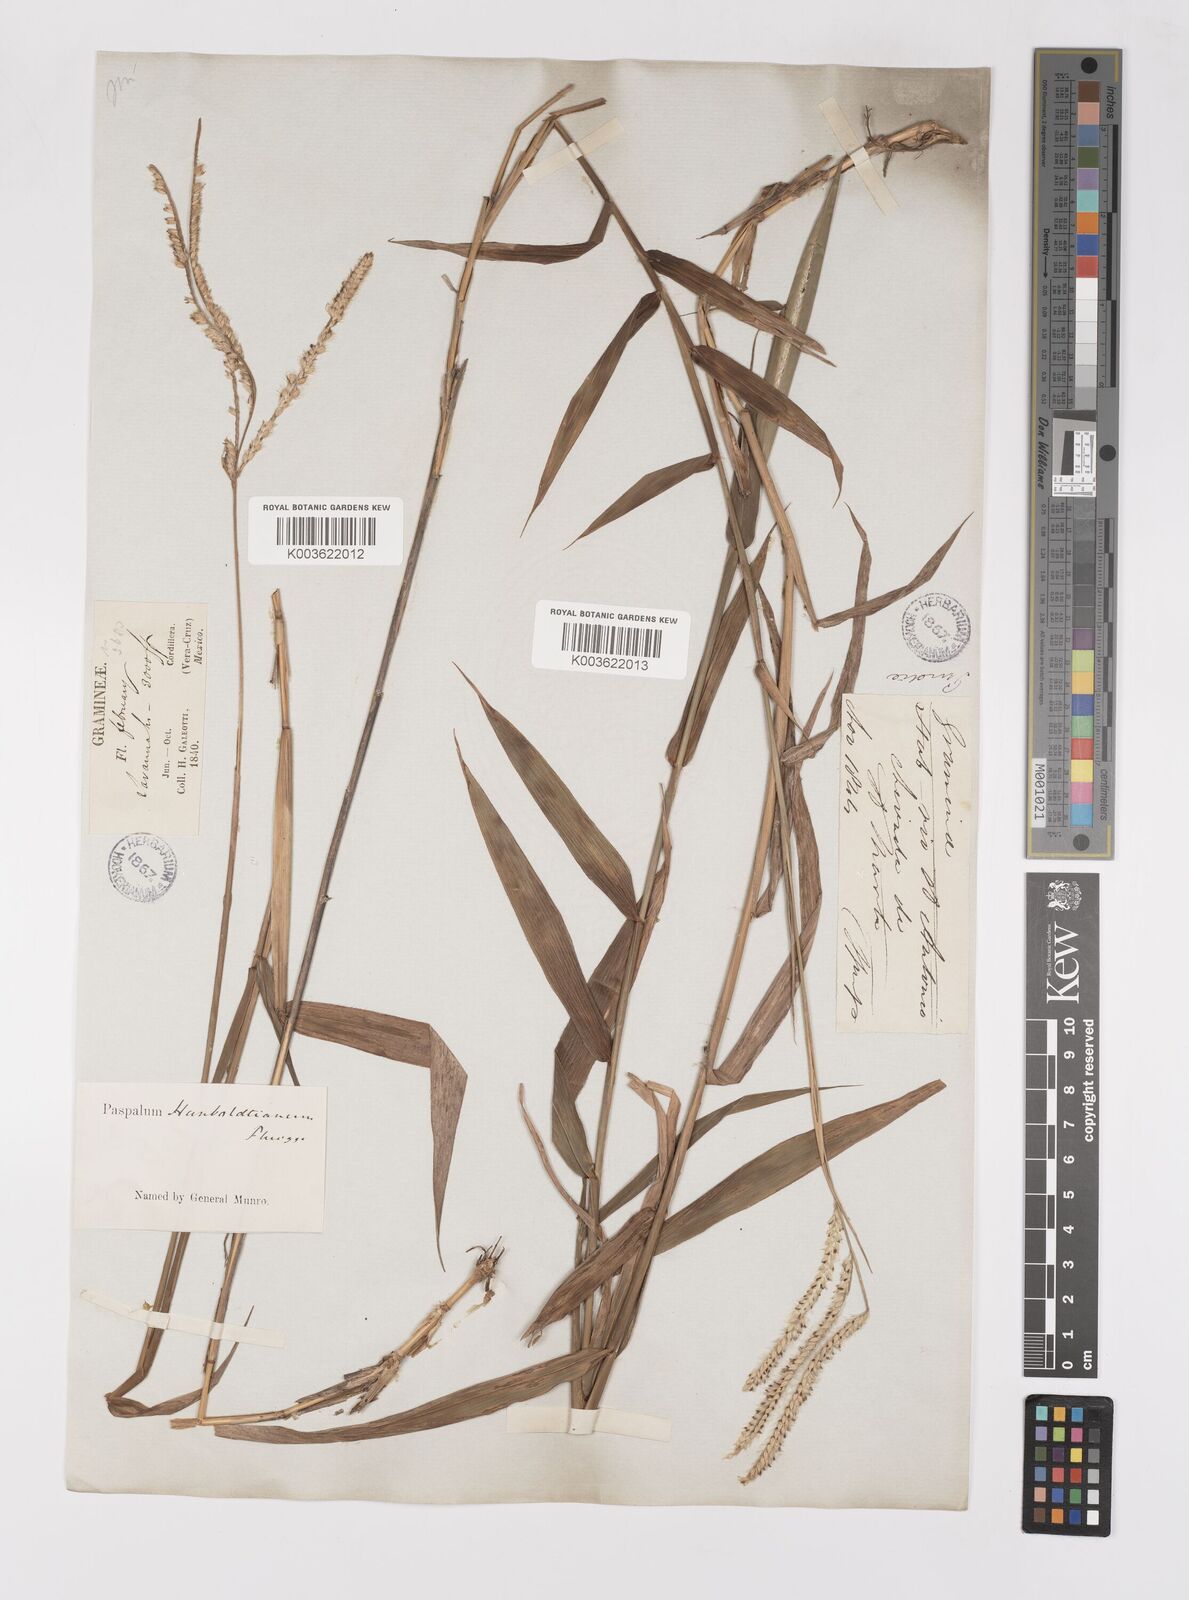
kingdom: Plantae
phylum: Tracheophyta
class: Liliopsida
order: Poales
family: Poaceae
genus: Paspalum
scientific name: Paspalum humboldtianum
